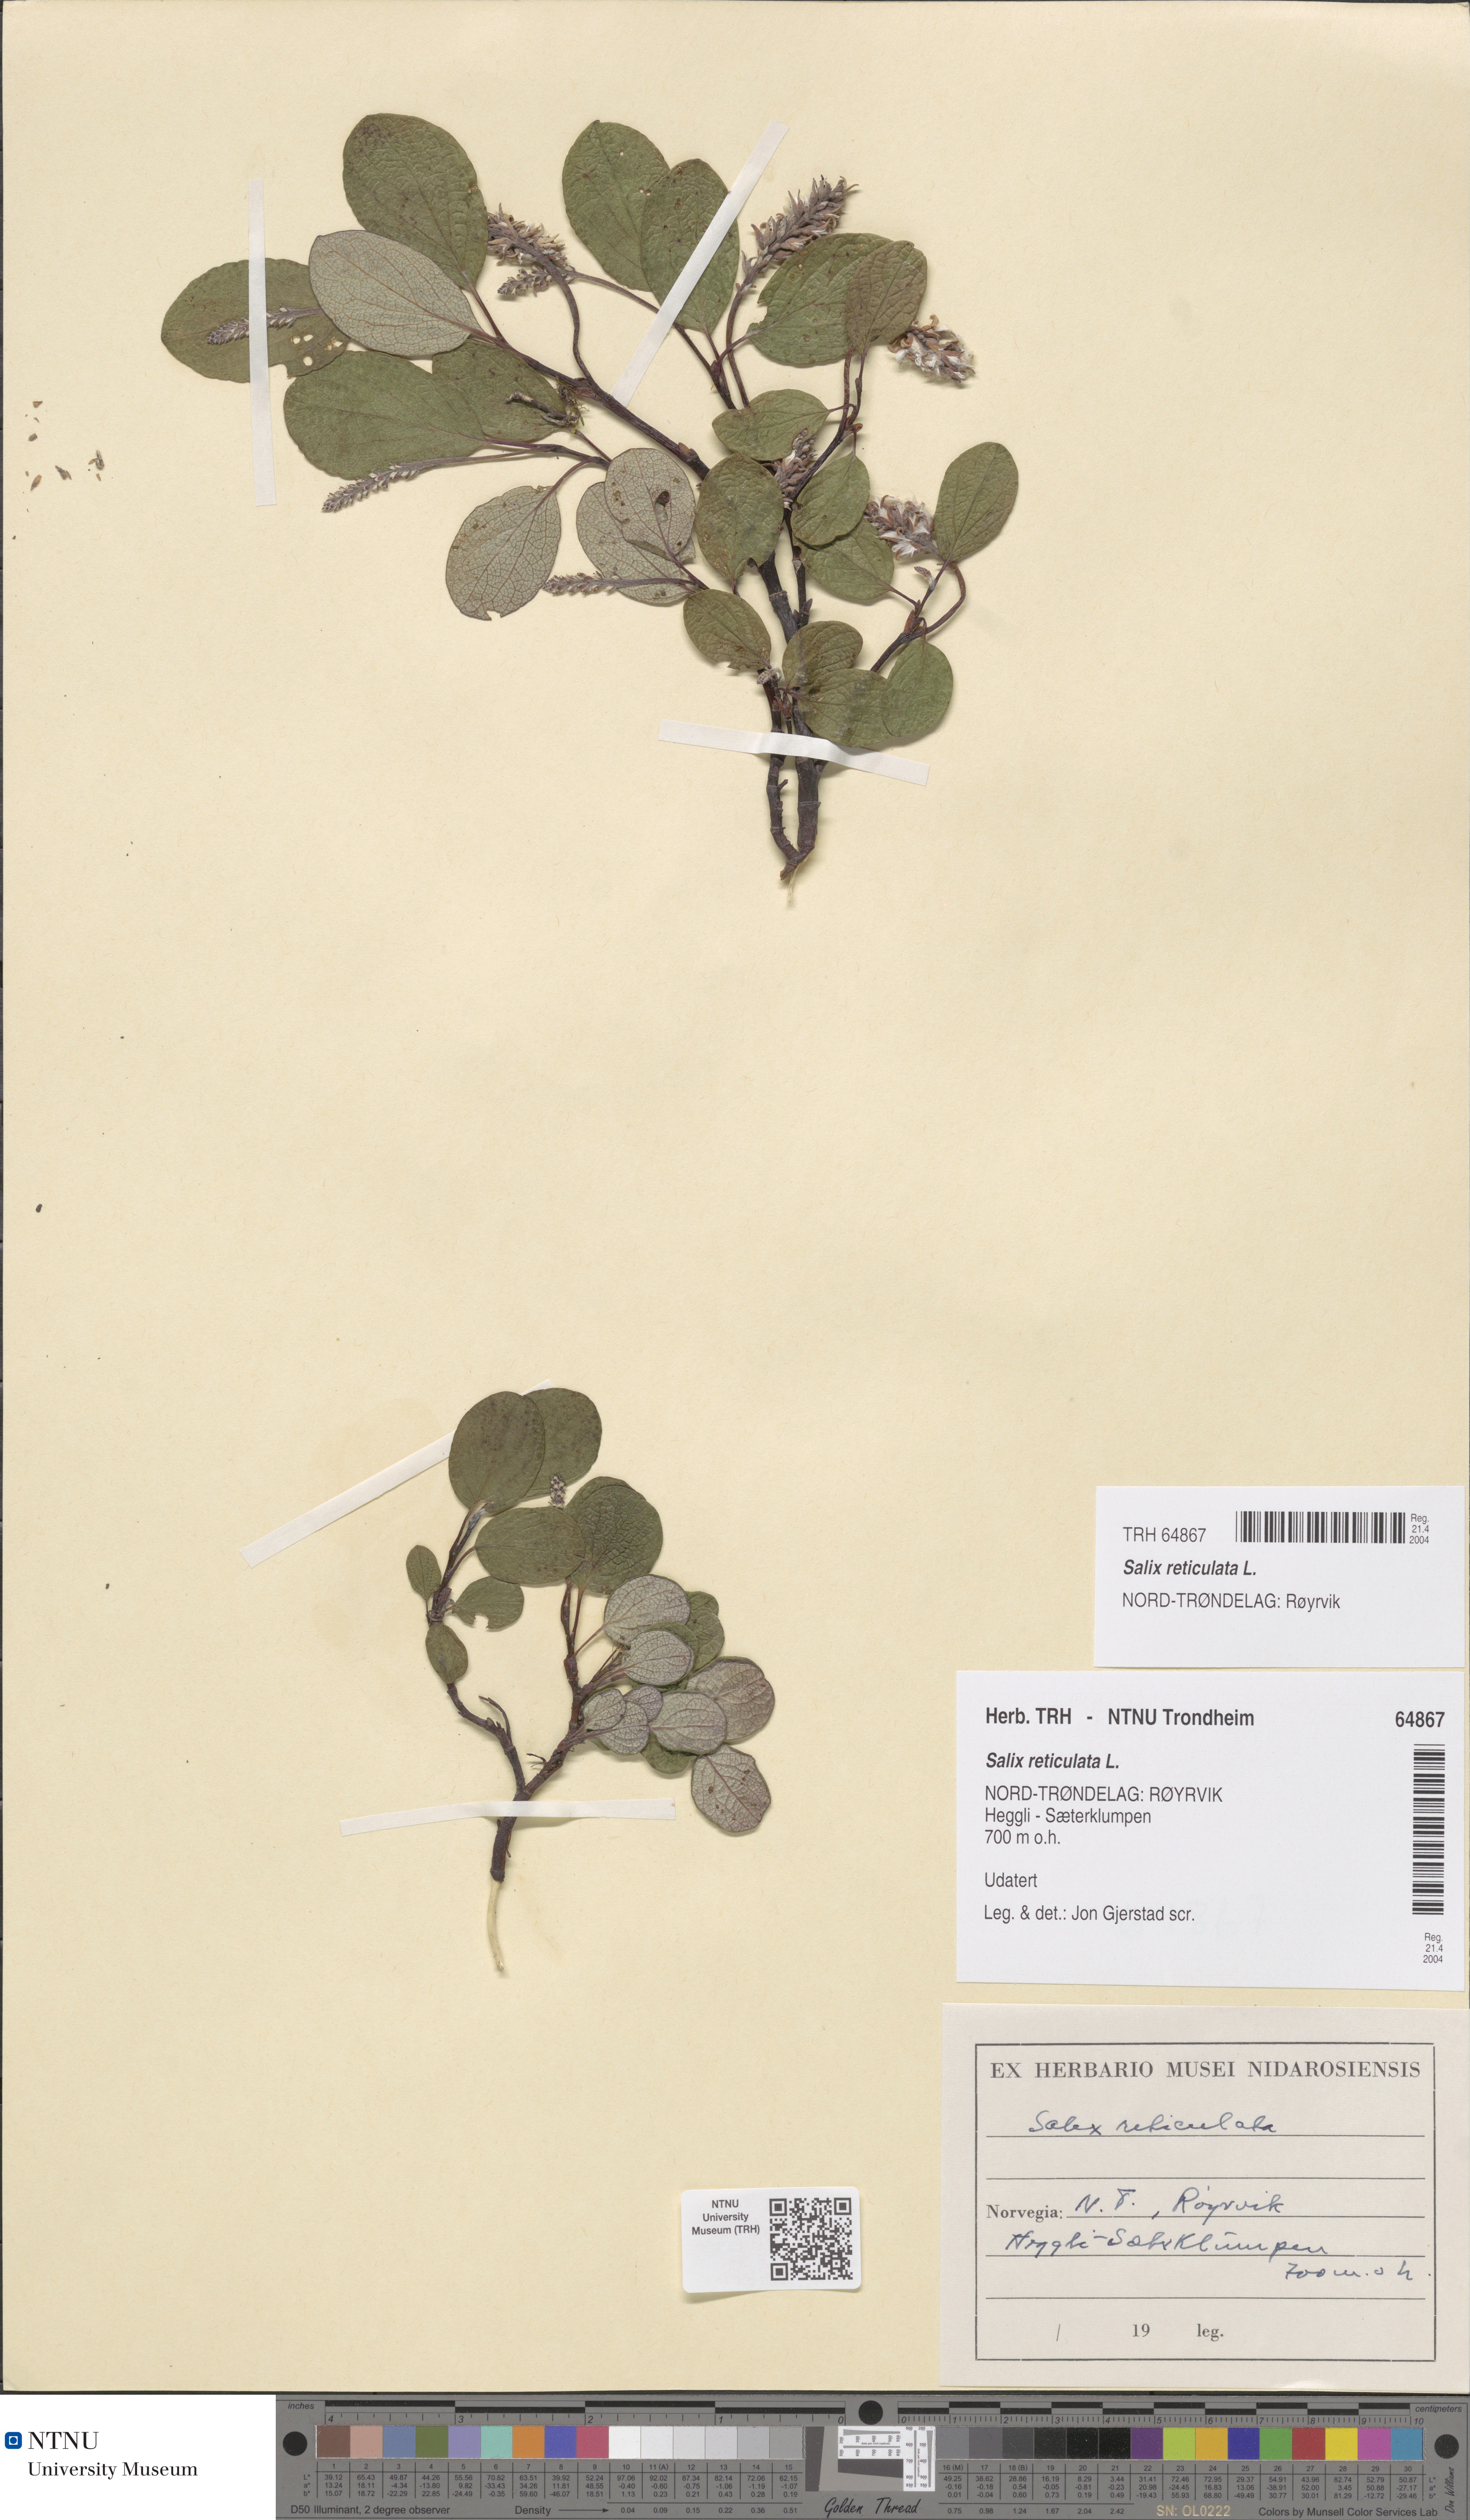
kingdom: Plantae
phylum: Tracheophyta
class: Magnoliopsida
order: Malpighiales
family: Salicaceae
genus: Salix
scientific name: Salix reticulata
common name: Net-leaved willow
